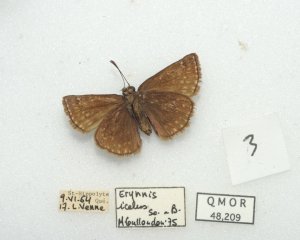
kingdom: Animalia
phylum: Arthropoda
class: Insecta
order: Lepidoptera
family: Hesperiidae
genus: Erynnis
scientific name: Erynnis icelus
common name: Dreamy Duskywing
